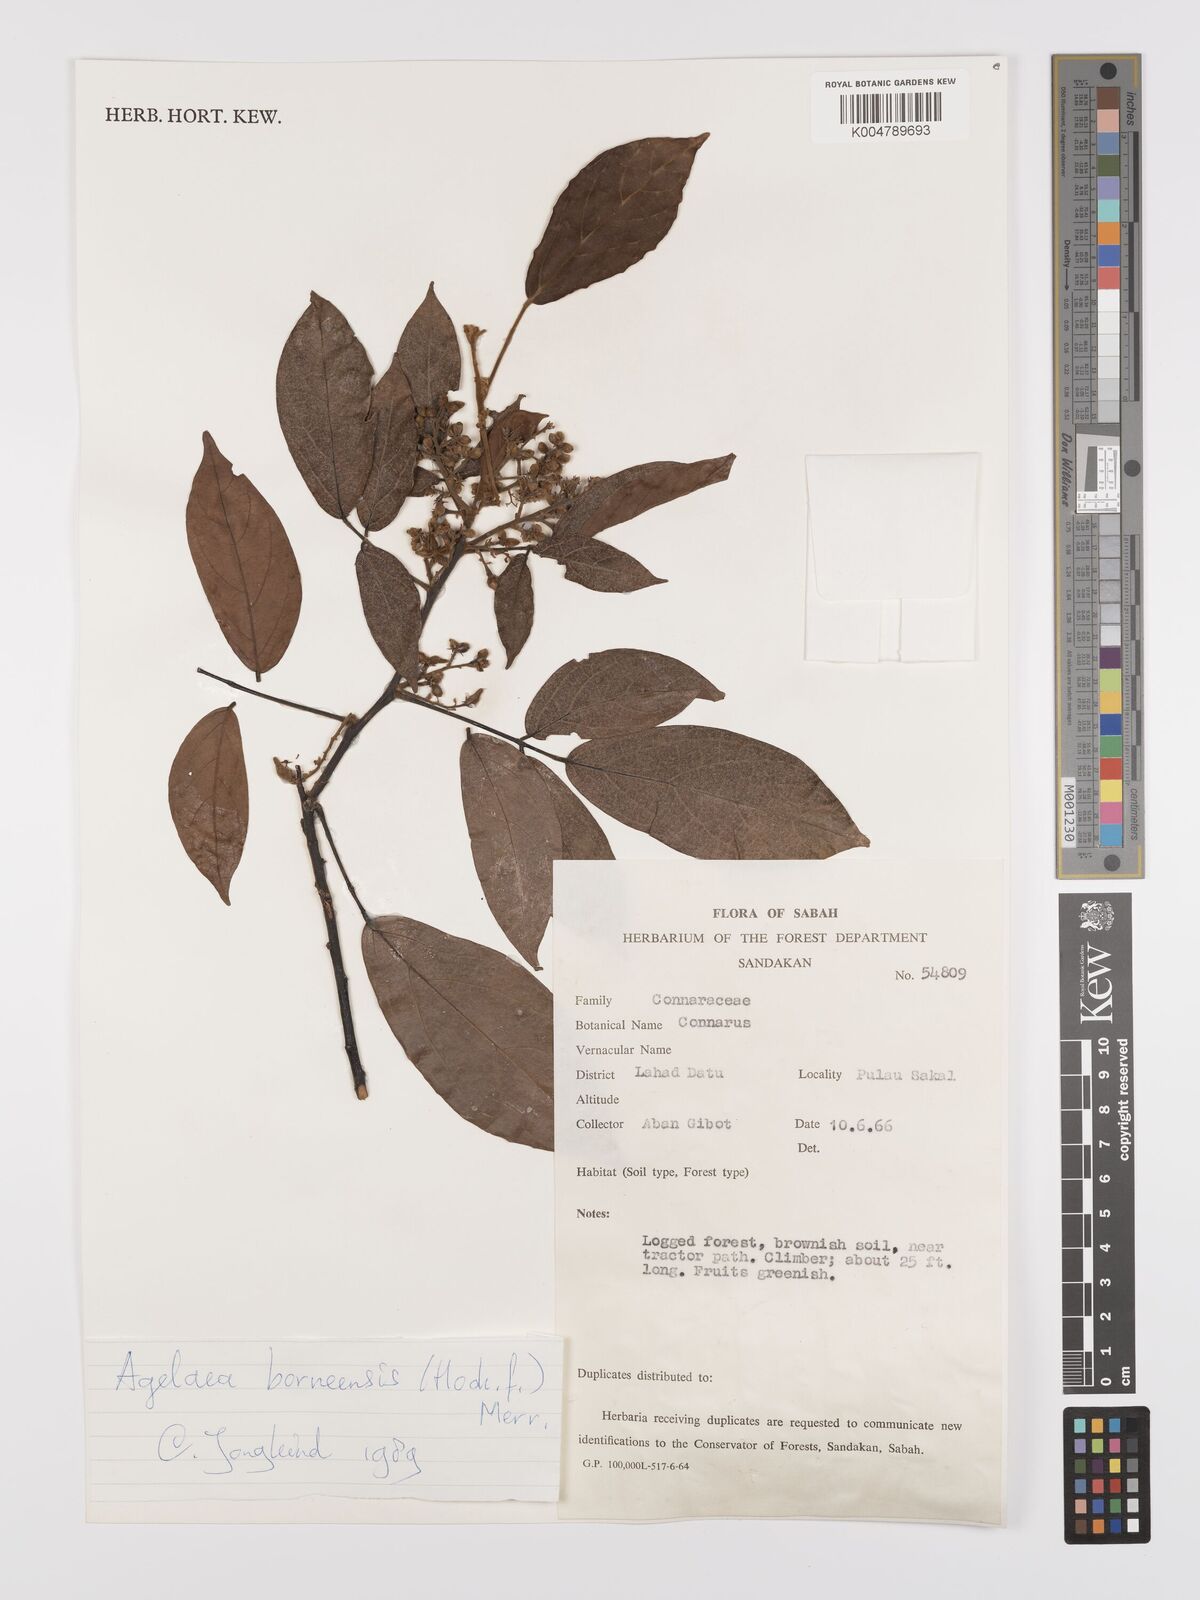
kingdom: Plantae
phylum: Tracheophyta
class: Magnoliopsida
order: Oxalidales
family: Connaraceae
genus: Agelaea
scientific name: Agelaea borneensis
